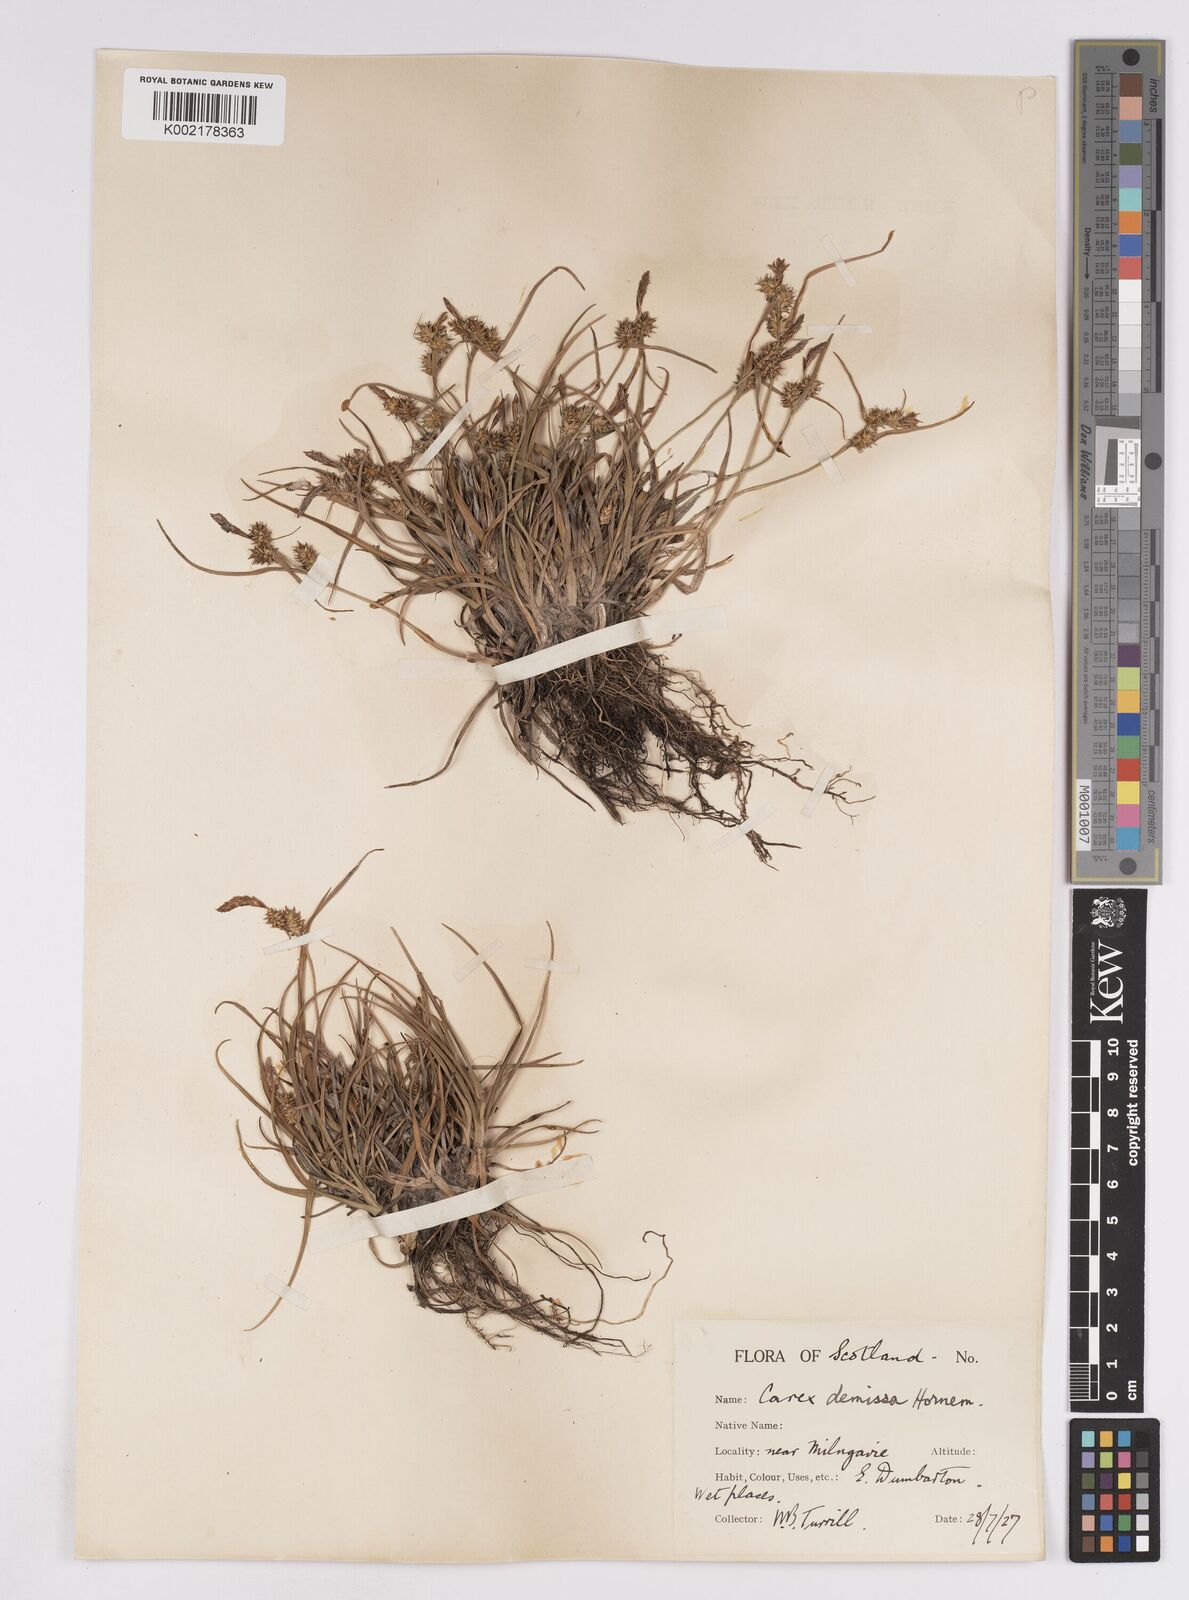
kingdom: Plantae
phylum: Tracheophyta
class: Liliopsida
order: Poales
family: Cyperaceae
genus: Carex
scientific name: Carex demissa
